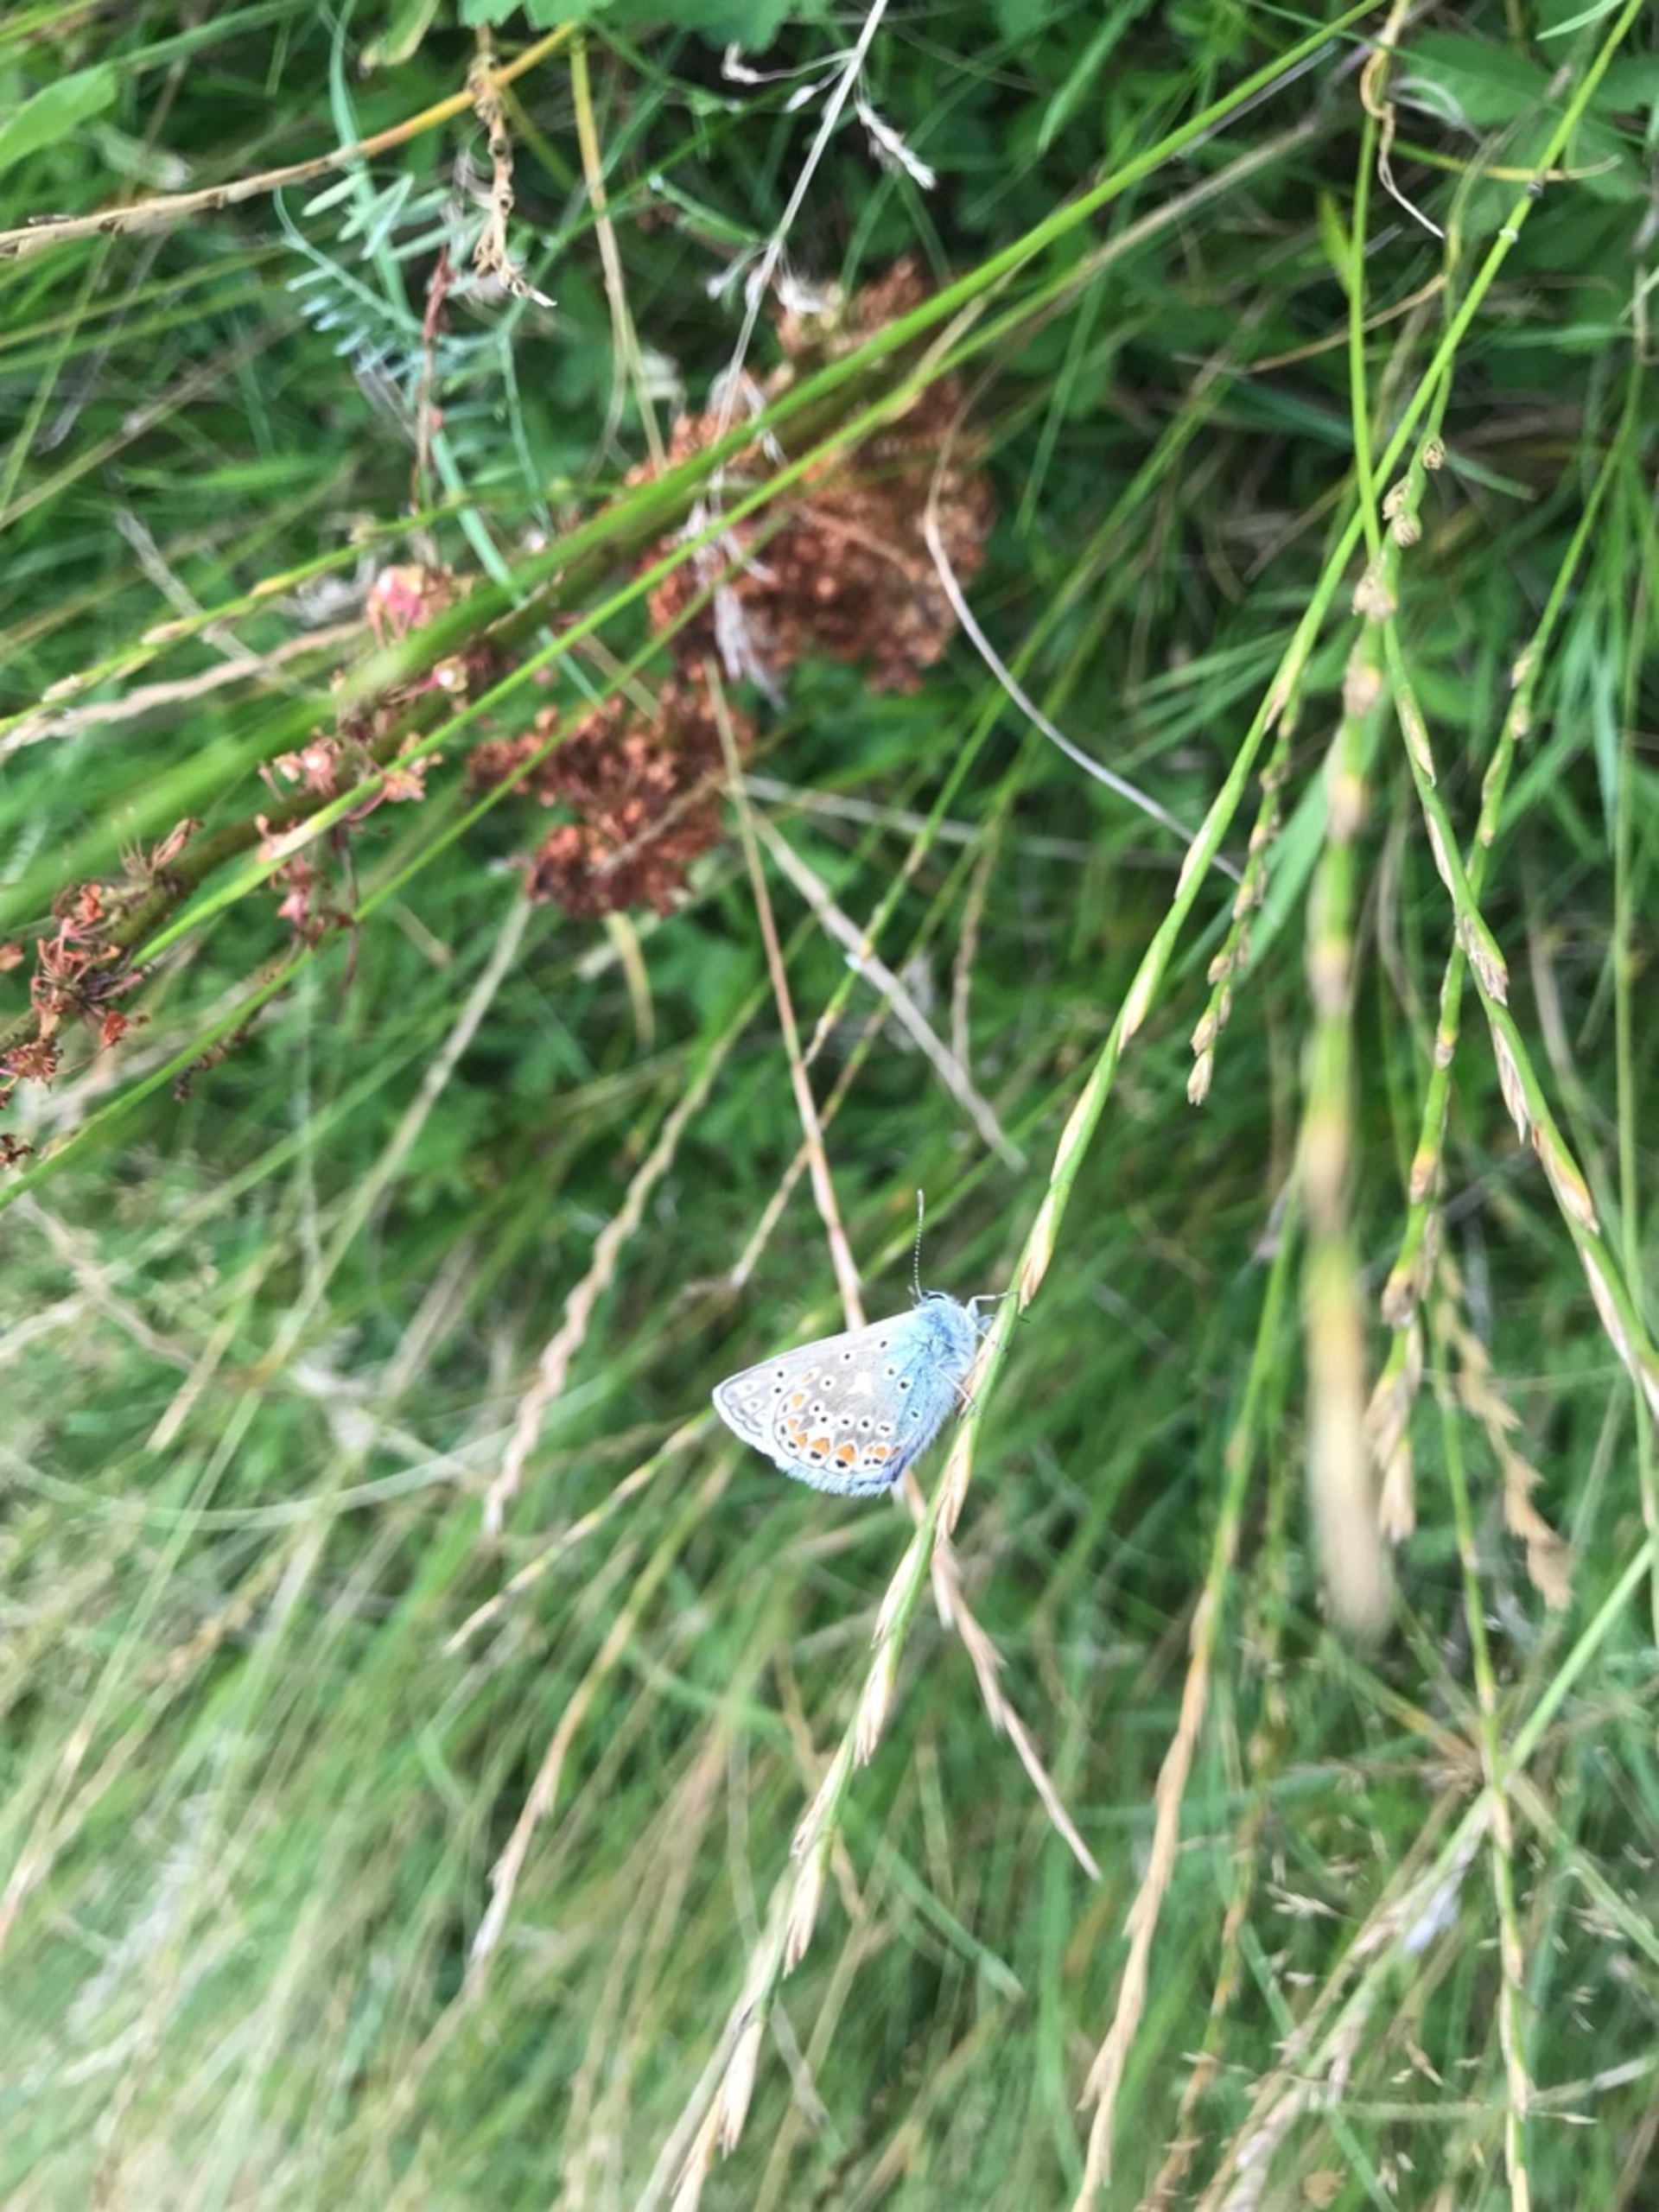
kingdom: Animalia
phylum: Arthropoda
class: Insecta
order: Lepidoptera
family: Lycaenidae
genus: Polyommatus
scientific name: Polyommatus icarus
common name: Almindelig blåfugl
